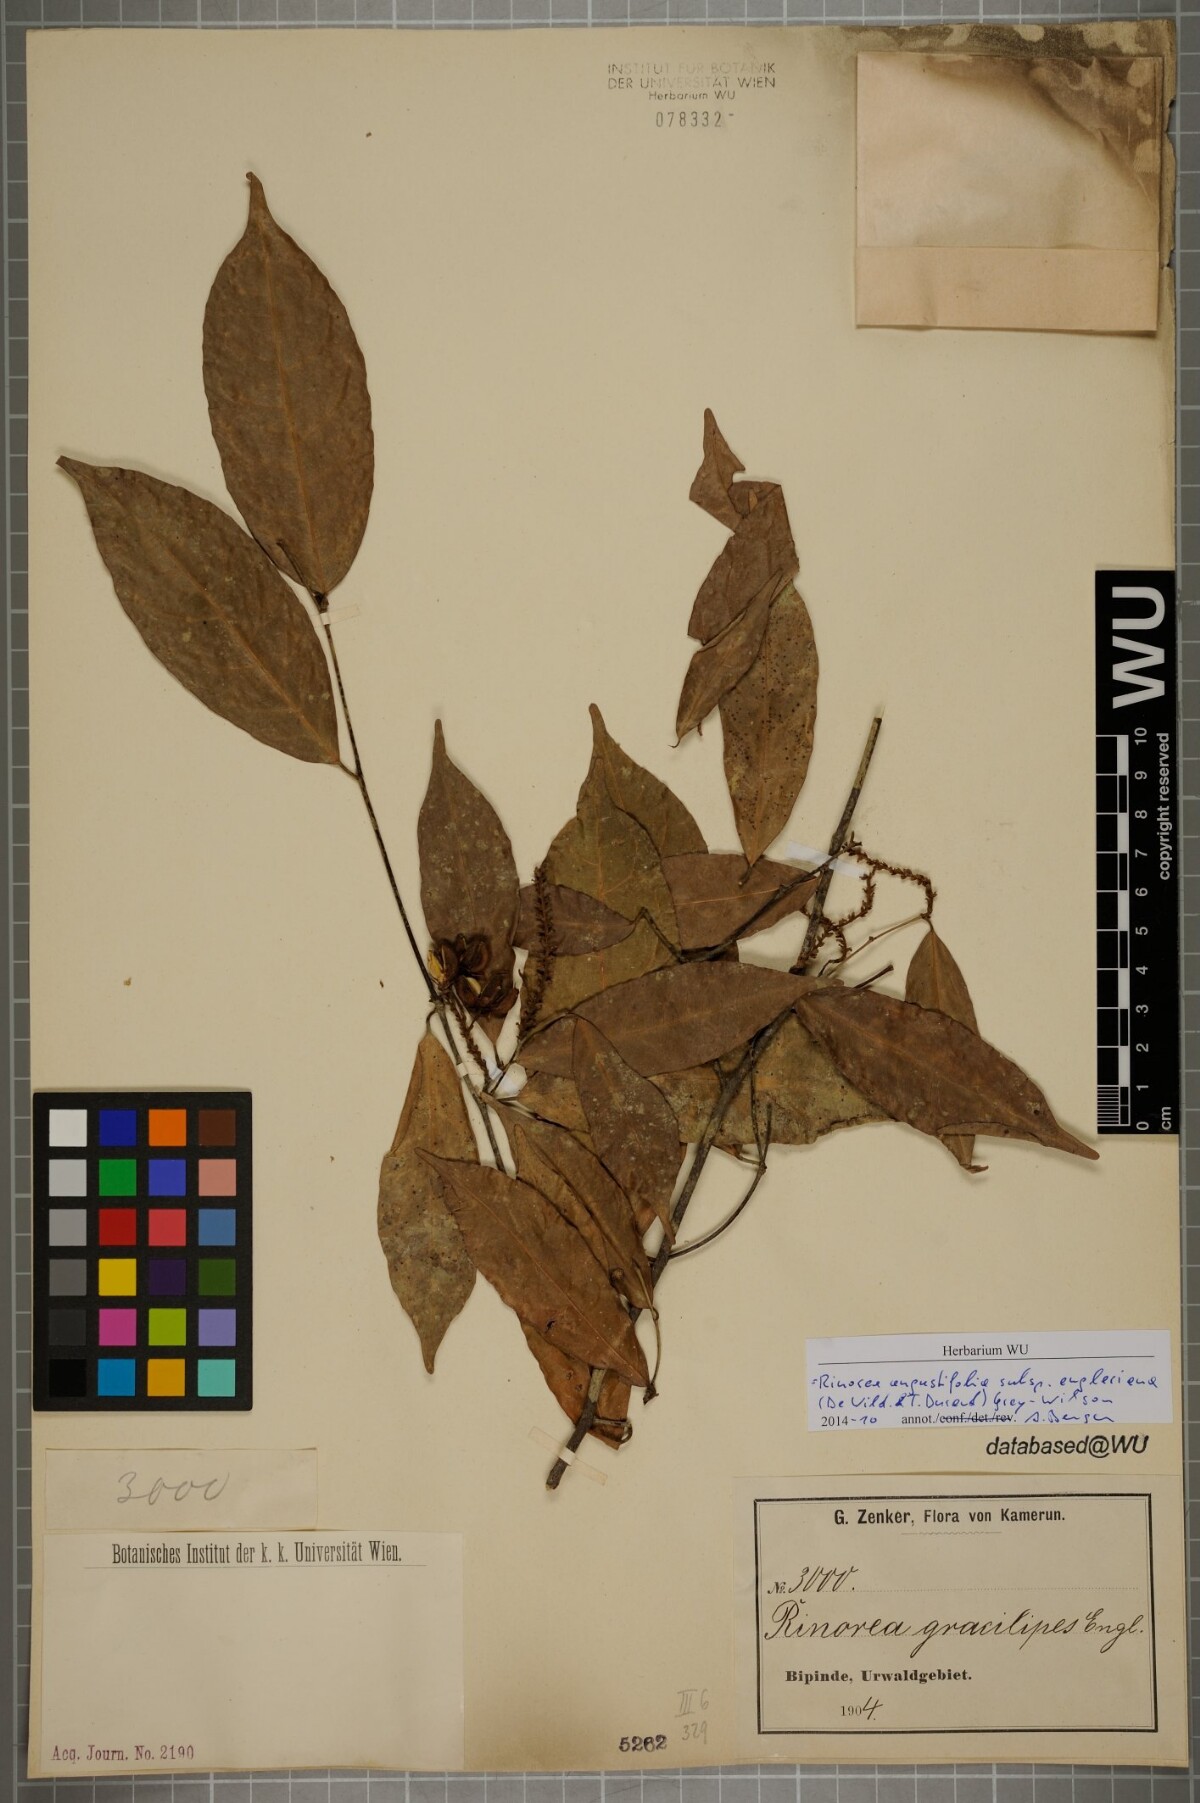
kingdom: Plantae
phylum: Tracheophyta
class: Magnoliopsida
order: Malpighiales
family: Violaceae
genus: Rinorea
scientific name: Rinorea angustifolia
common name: White violet-bush
